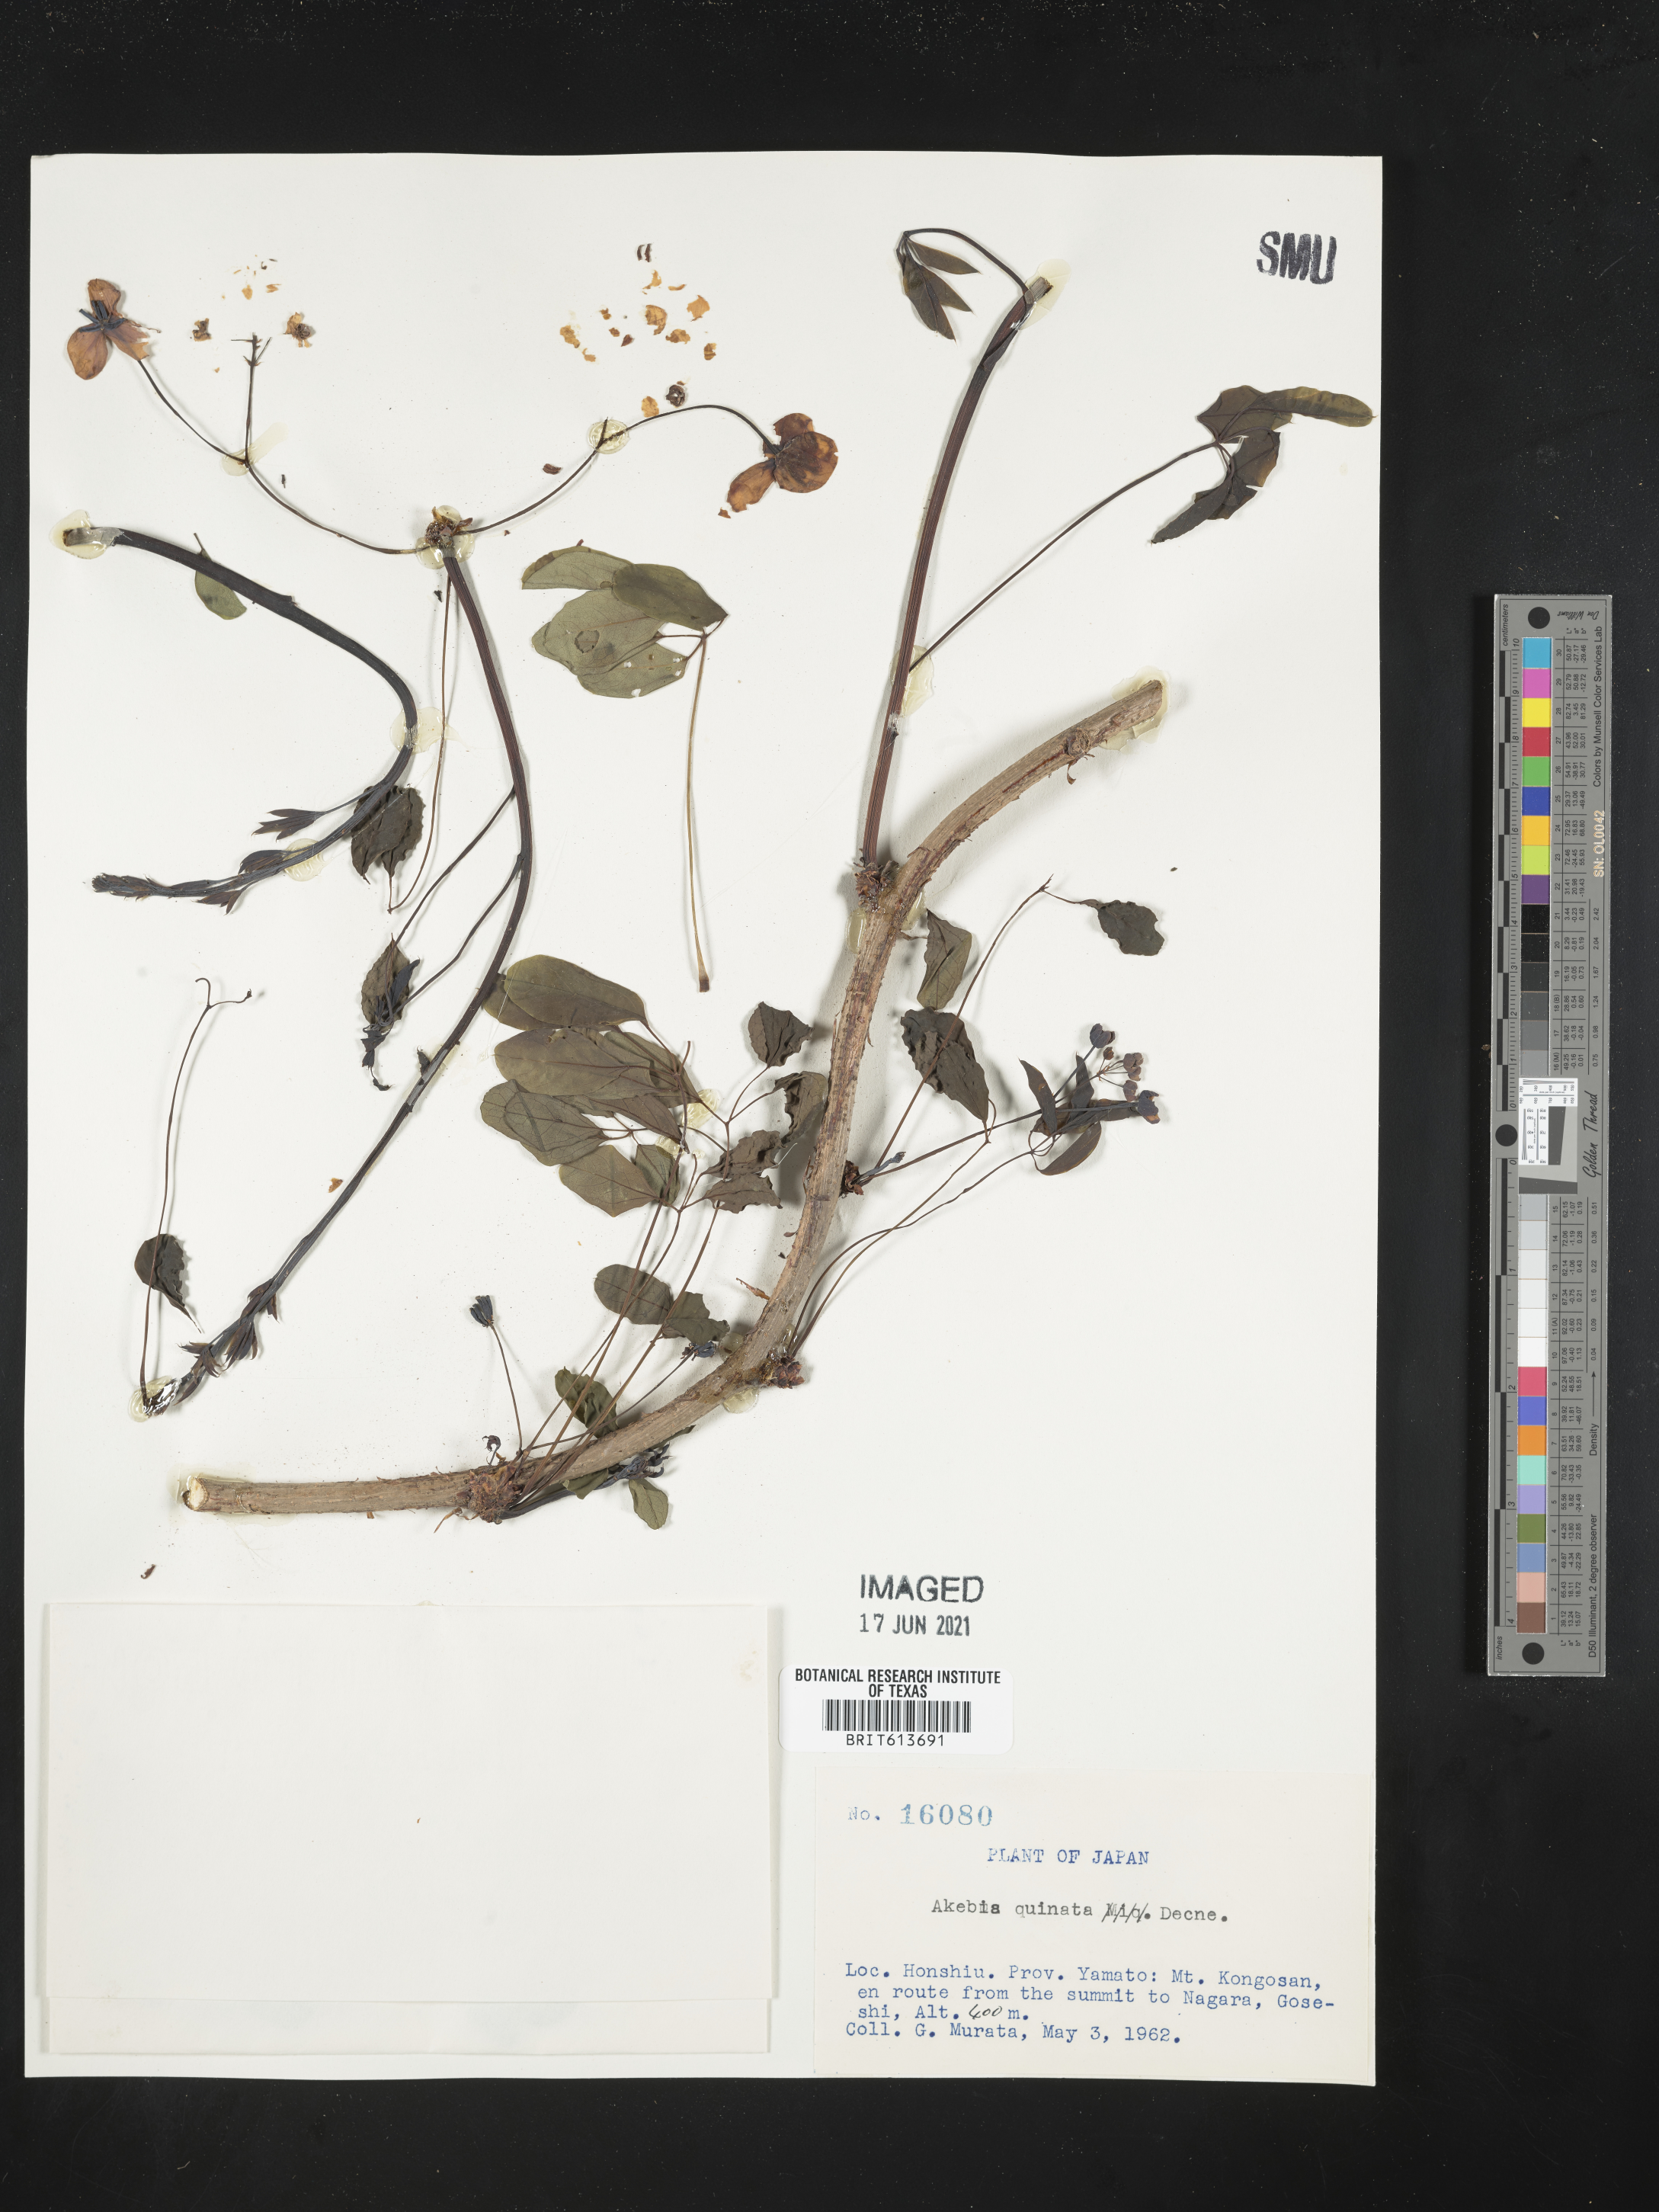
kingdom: Plantae
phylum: Tracheophyta
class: Magnoliopsida
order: Ranunculales
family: Lardizabalaceae
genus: Akebia
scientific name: Akebia quinata
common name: Five-leaf akebia
